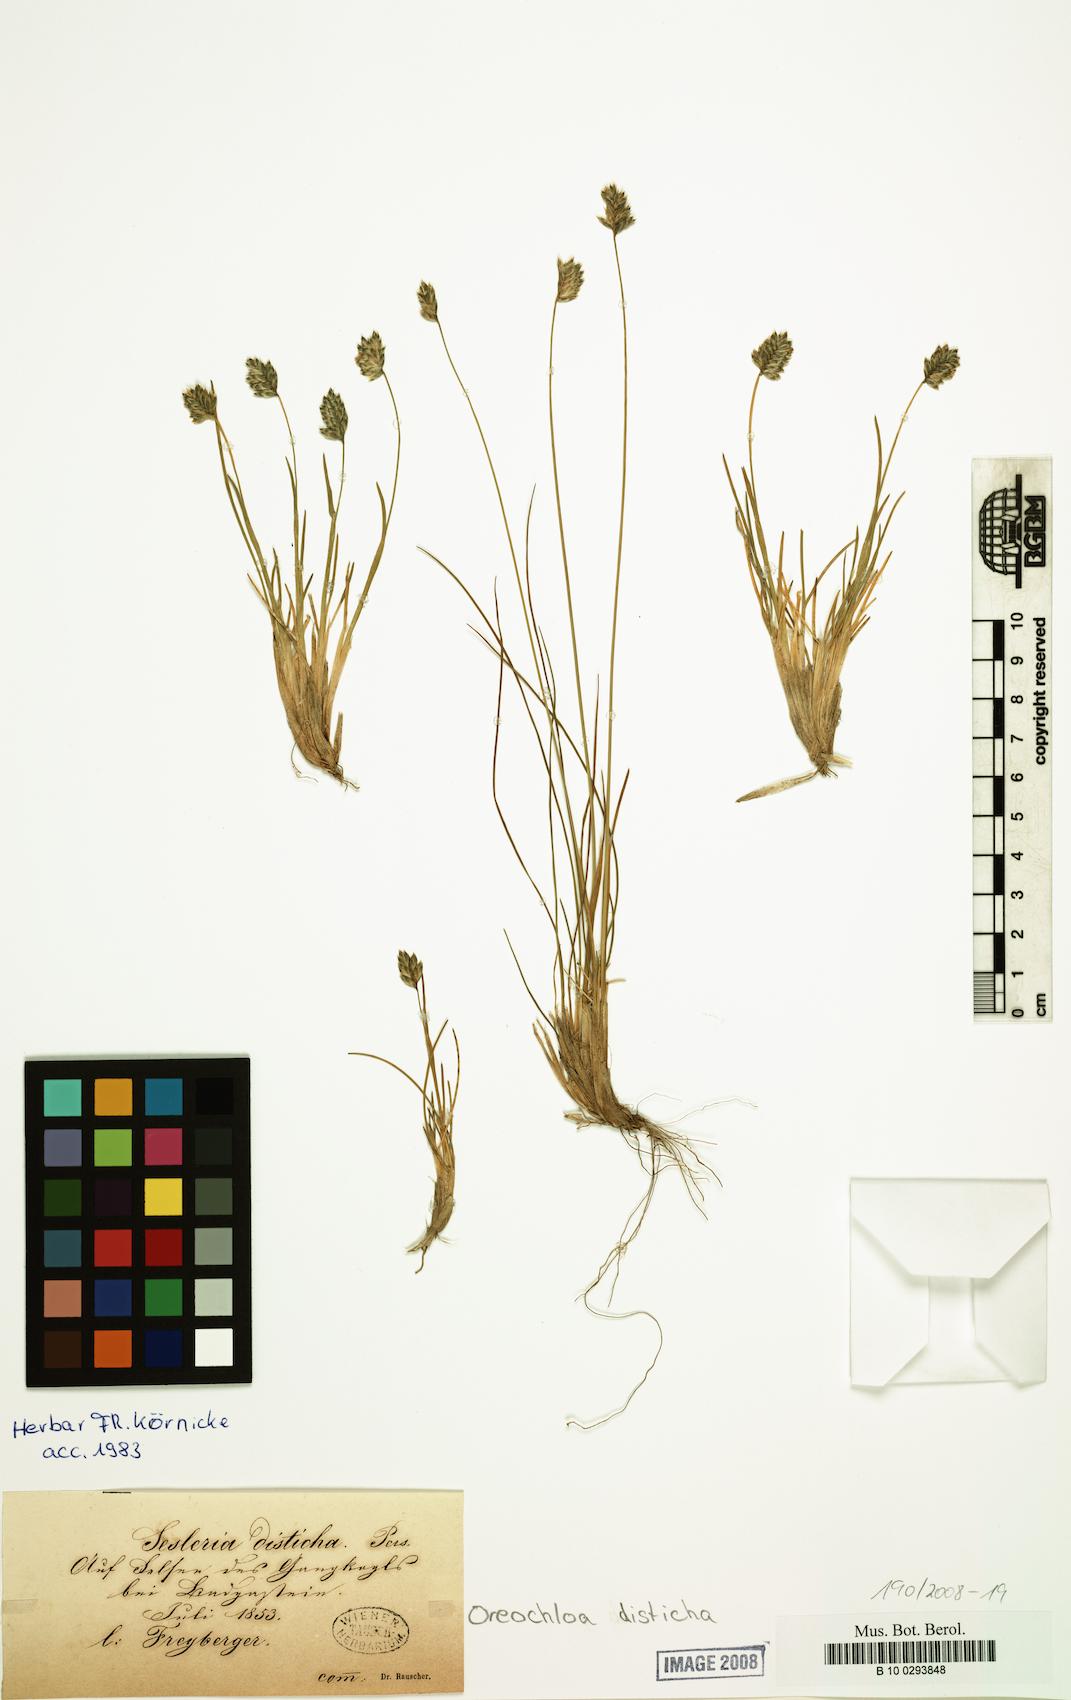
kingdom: Plantae
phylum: Tracheophyta
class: Liliopsida
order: Poales
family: Poaceae
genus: Oreochloa
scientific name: Oreochloa disticha
